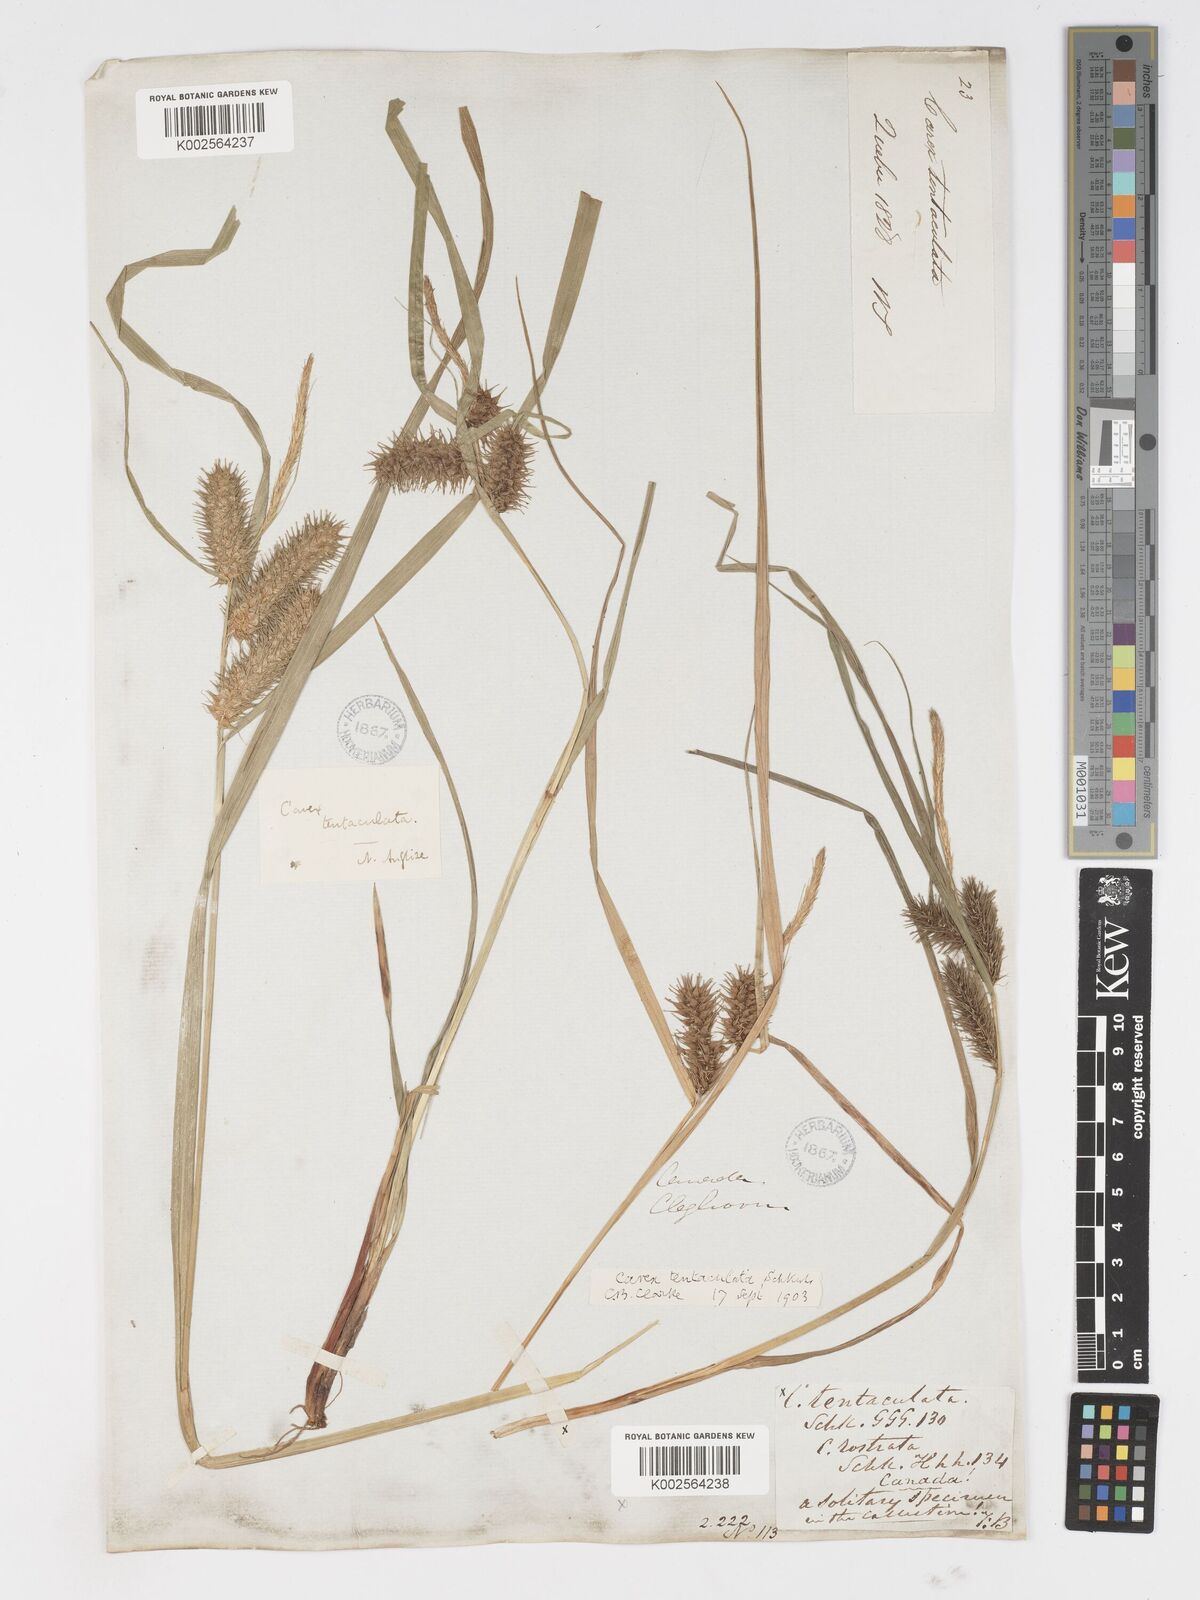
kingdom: Plantae
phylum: Tracheophyta
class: Liliopsida
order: Poales
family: Cyperaceae
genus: Carex
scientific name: Carex lurida
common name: Sallow sedge
